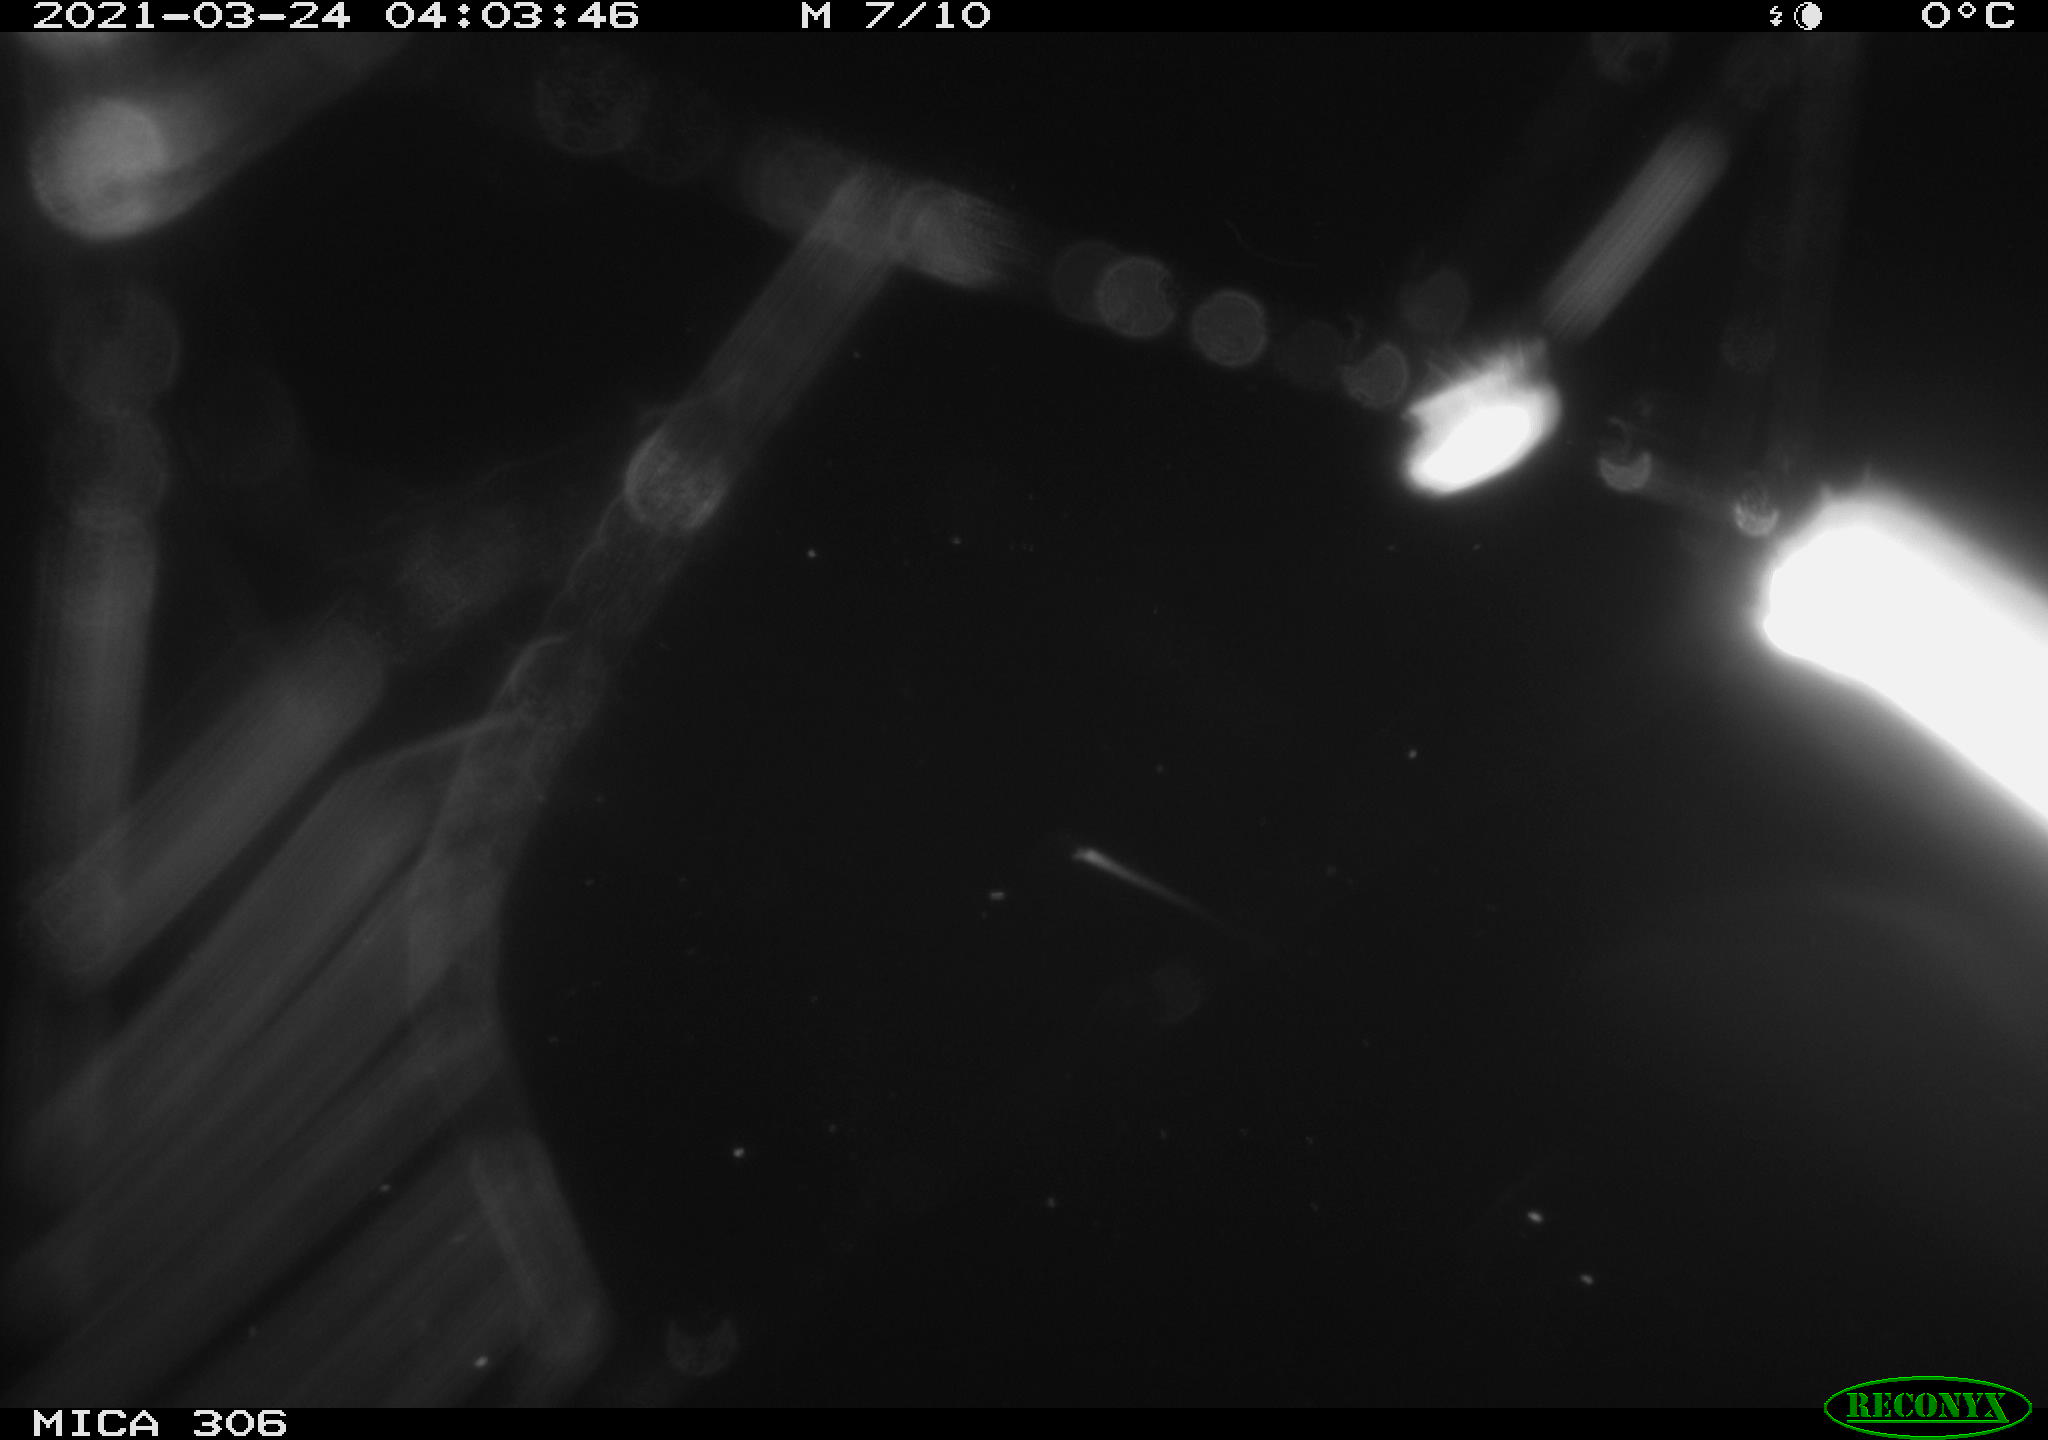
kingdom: Animalia
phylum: Chordata
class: Mammalia
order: Rodentia
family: Cricetidae
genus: Ondatra
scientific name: Ondatra zibethicus
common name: Muskrat
